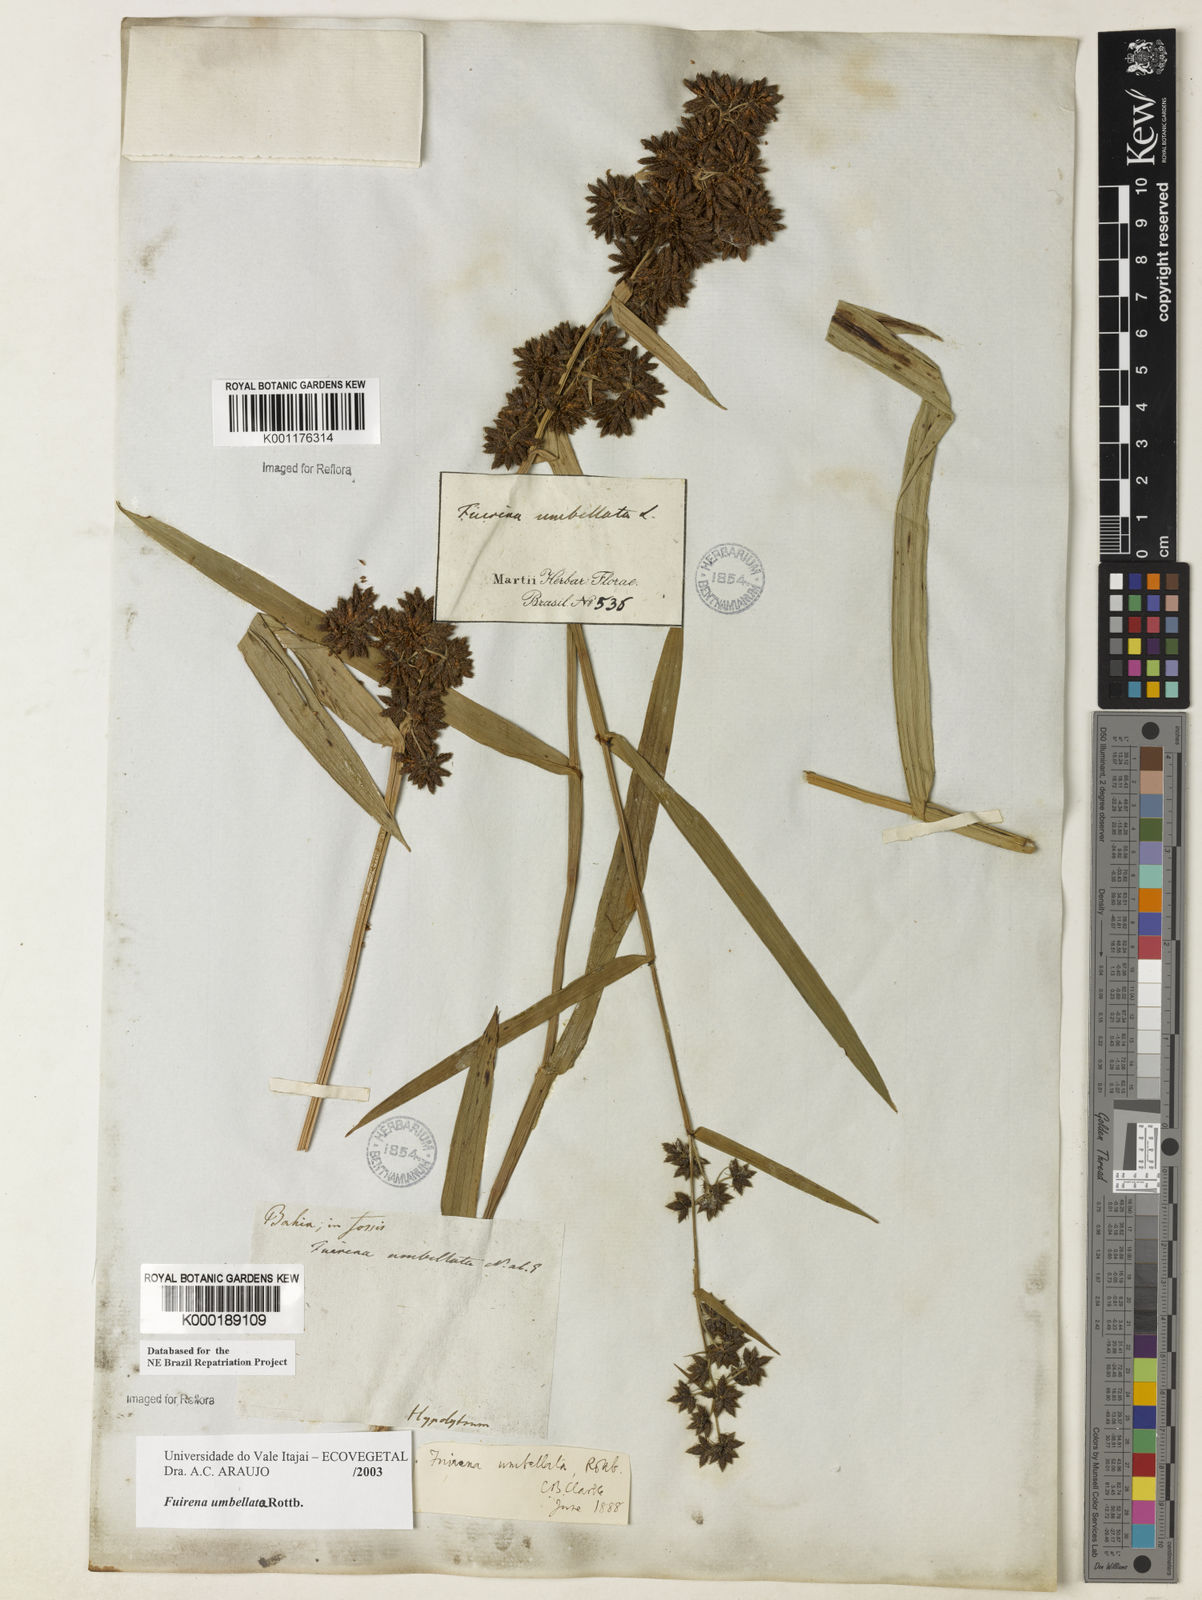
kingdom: Plantae
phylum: Tracheophyta
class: Liliopsida
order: Poales
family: Cyperaceae
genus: Fuirena
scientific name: Fuirena umbellata
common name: Yefen
